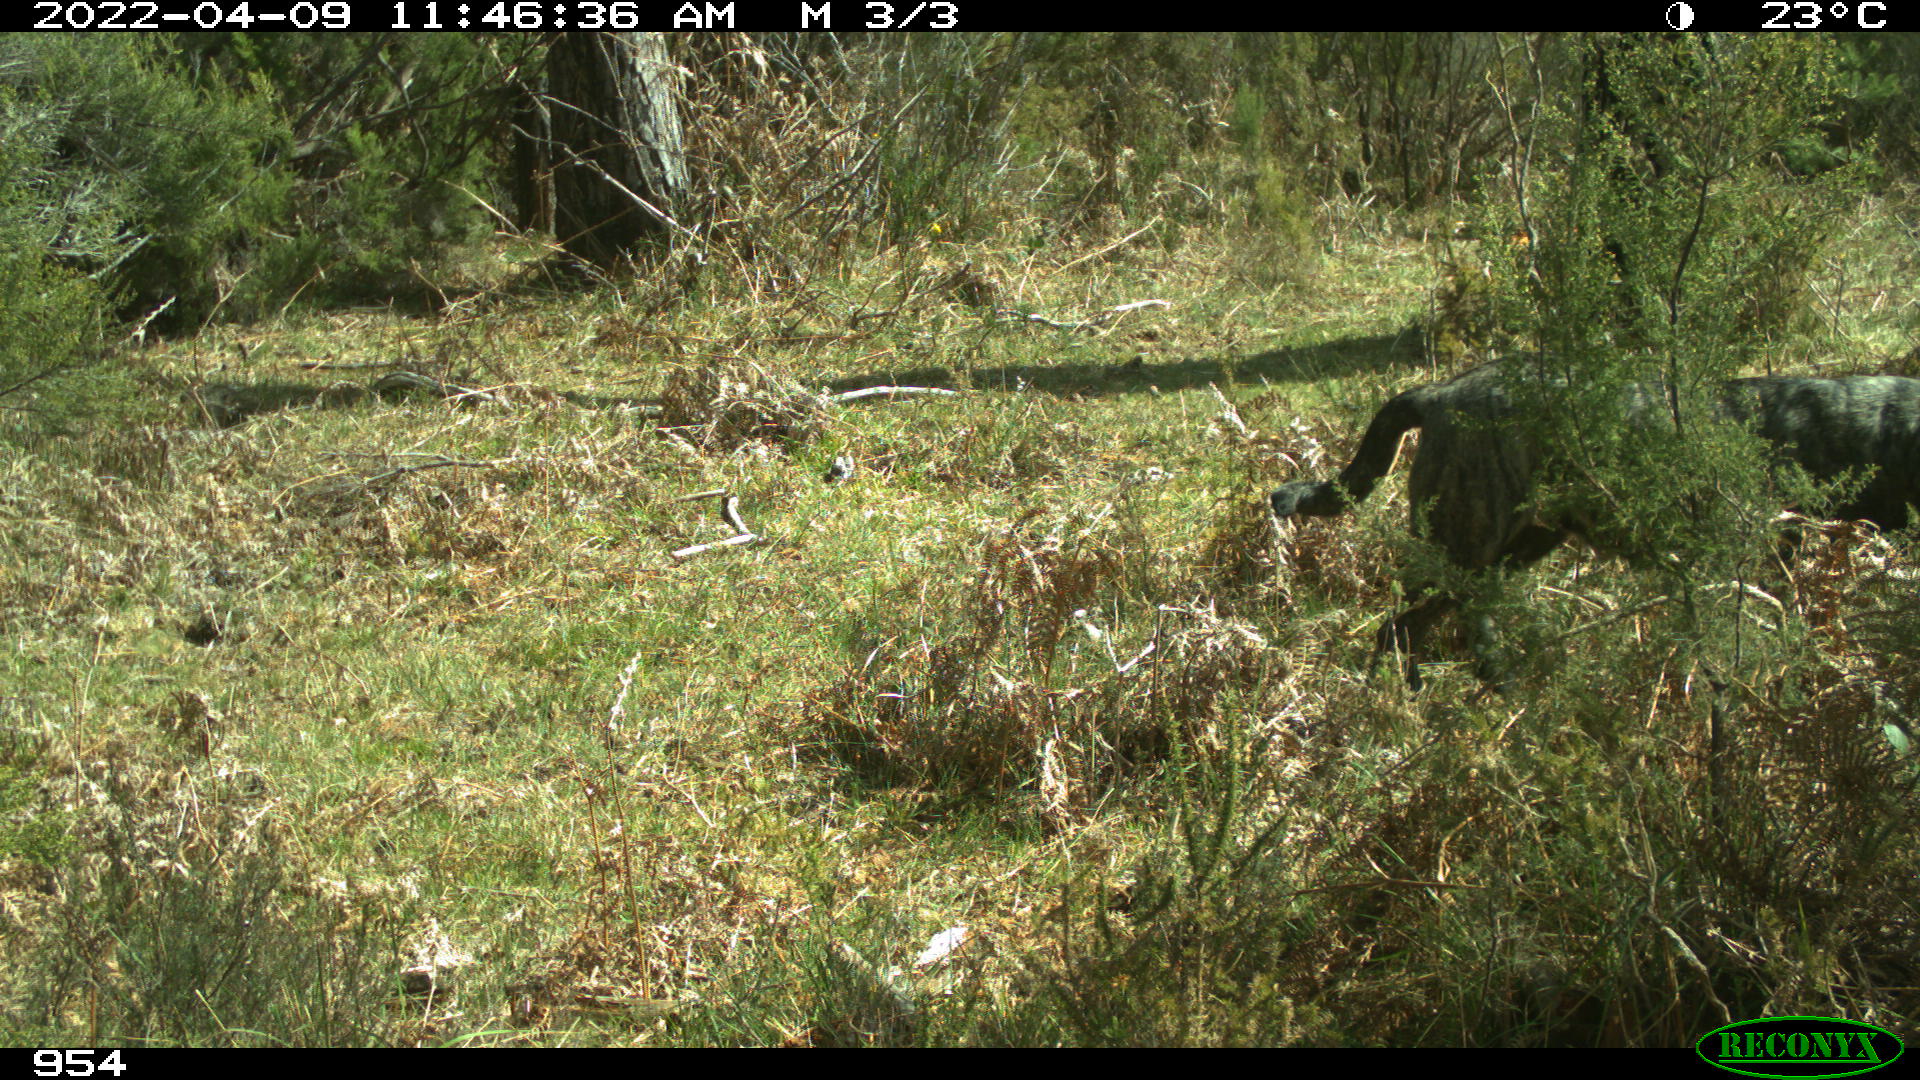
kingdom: Animalia
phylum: Chordata
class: Mammalia
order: Carnivora
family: Canidae
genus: Canis
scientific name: Canis lupus
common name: Gray wolf
